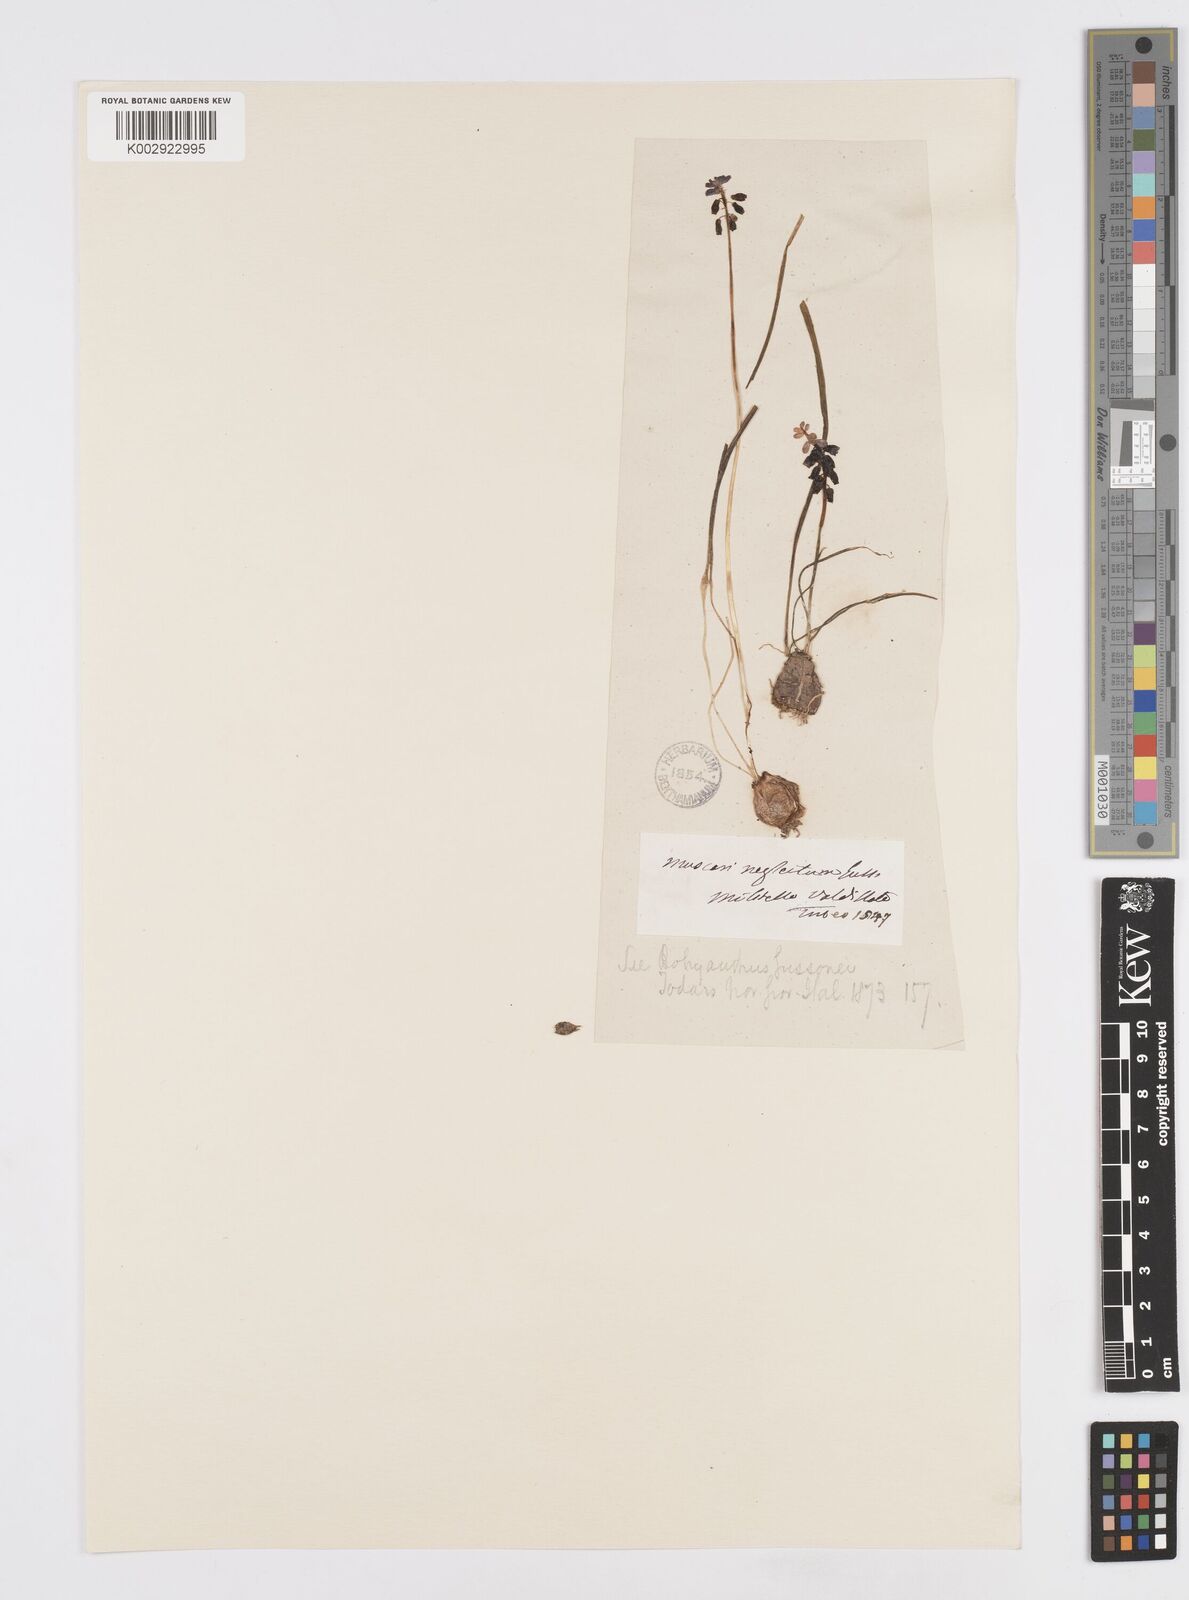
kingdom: Plantae
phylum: Tracheophyta
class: Liliopsida
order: Asparagales
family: Asparagaceae
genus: Muscari
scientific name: Muscari neglectum
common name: Grape-hyacinth
